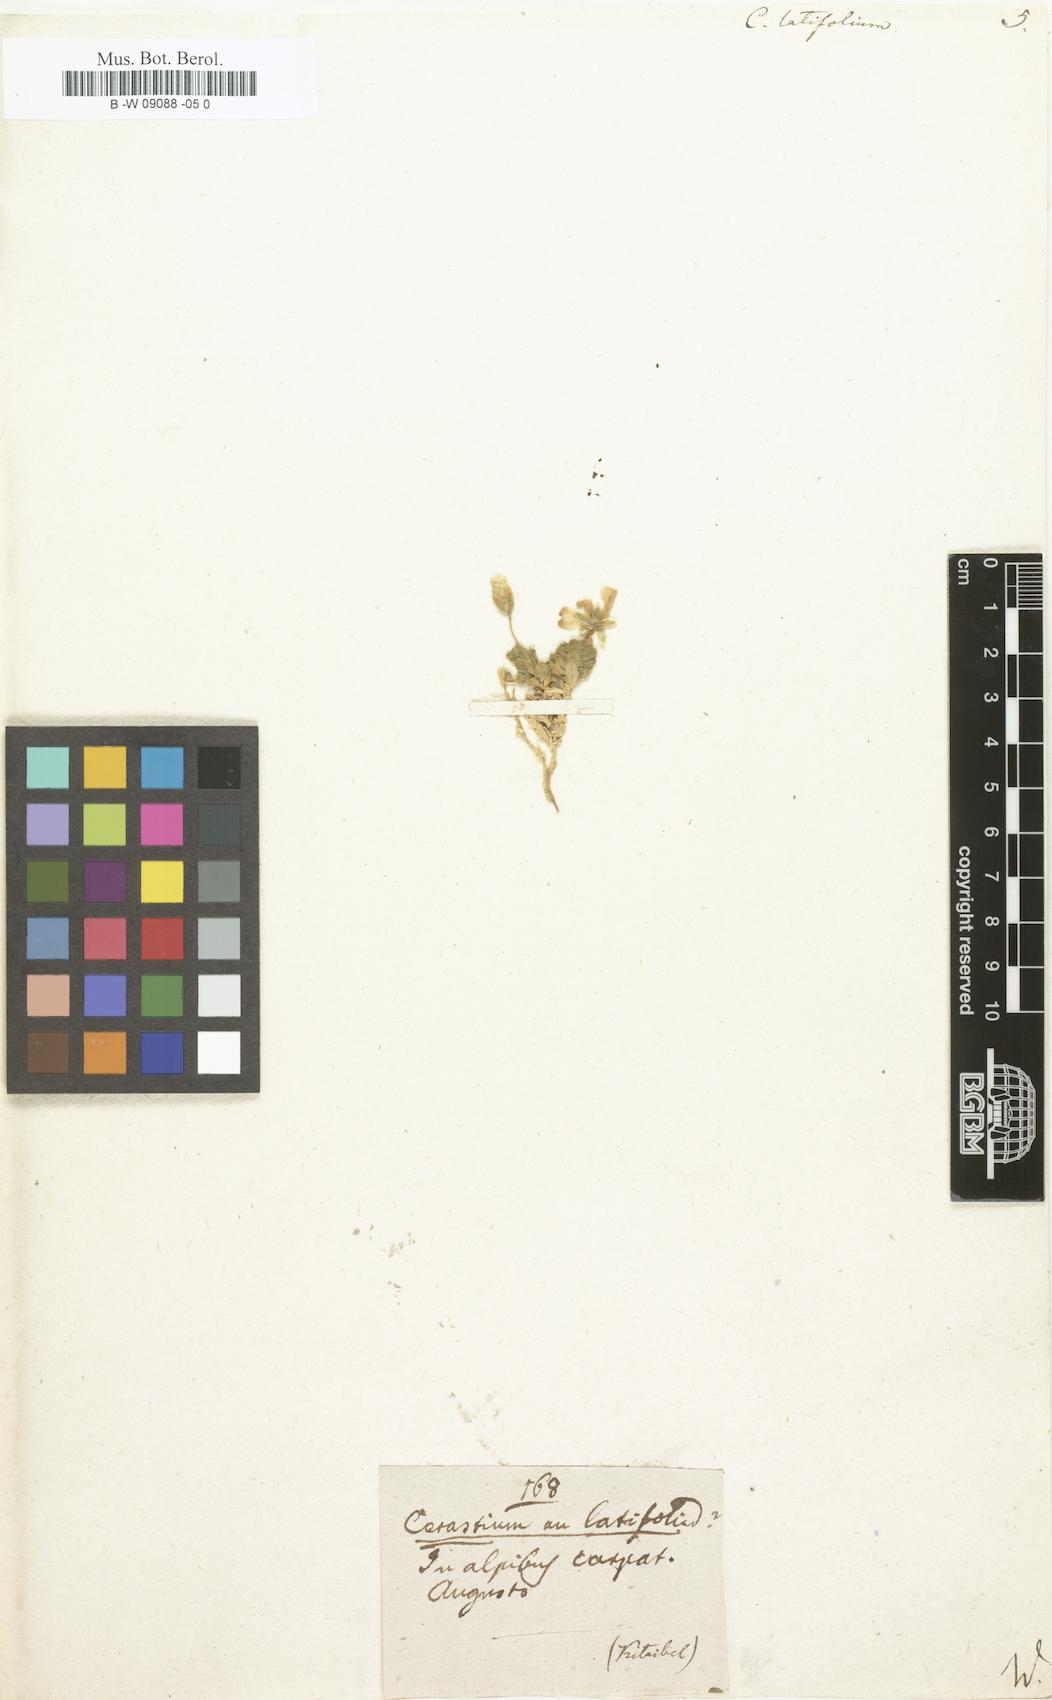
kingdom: Plantae
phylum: Tracheophyta
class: Magnoliopsida
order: Caryophyllales
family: Caryophyllaceae
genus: Cerastium
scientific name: Cerastium latifolium
